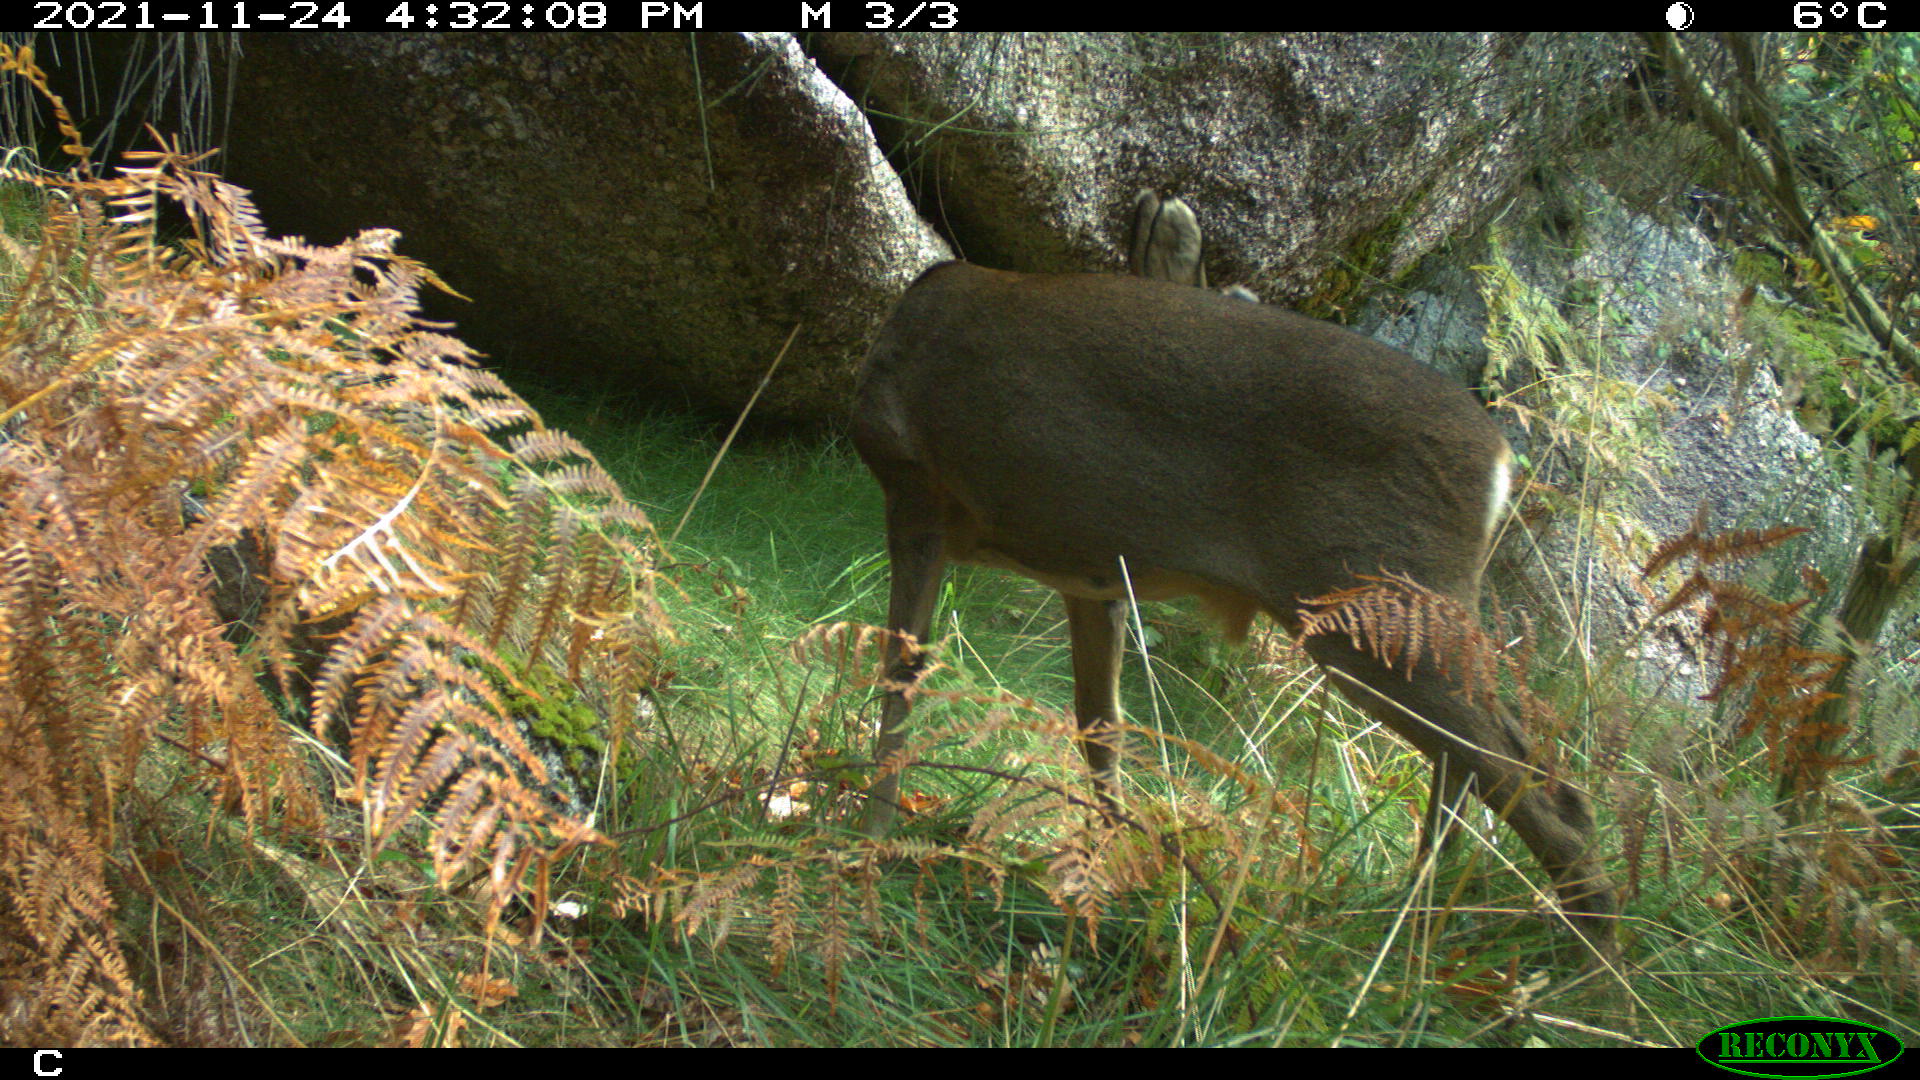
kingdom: Animalia
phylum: Chordata
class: Mammalia
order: Artiodactyla
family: Cervidae
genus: Cervus
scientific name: Cervus elaphus
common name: Red deer
